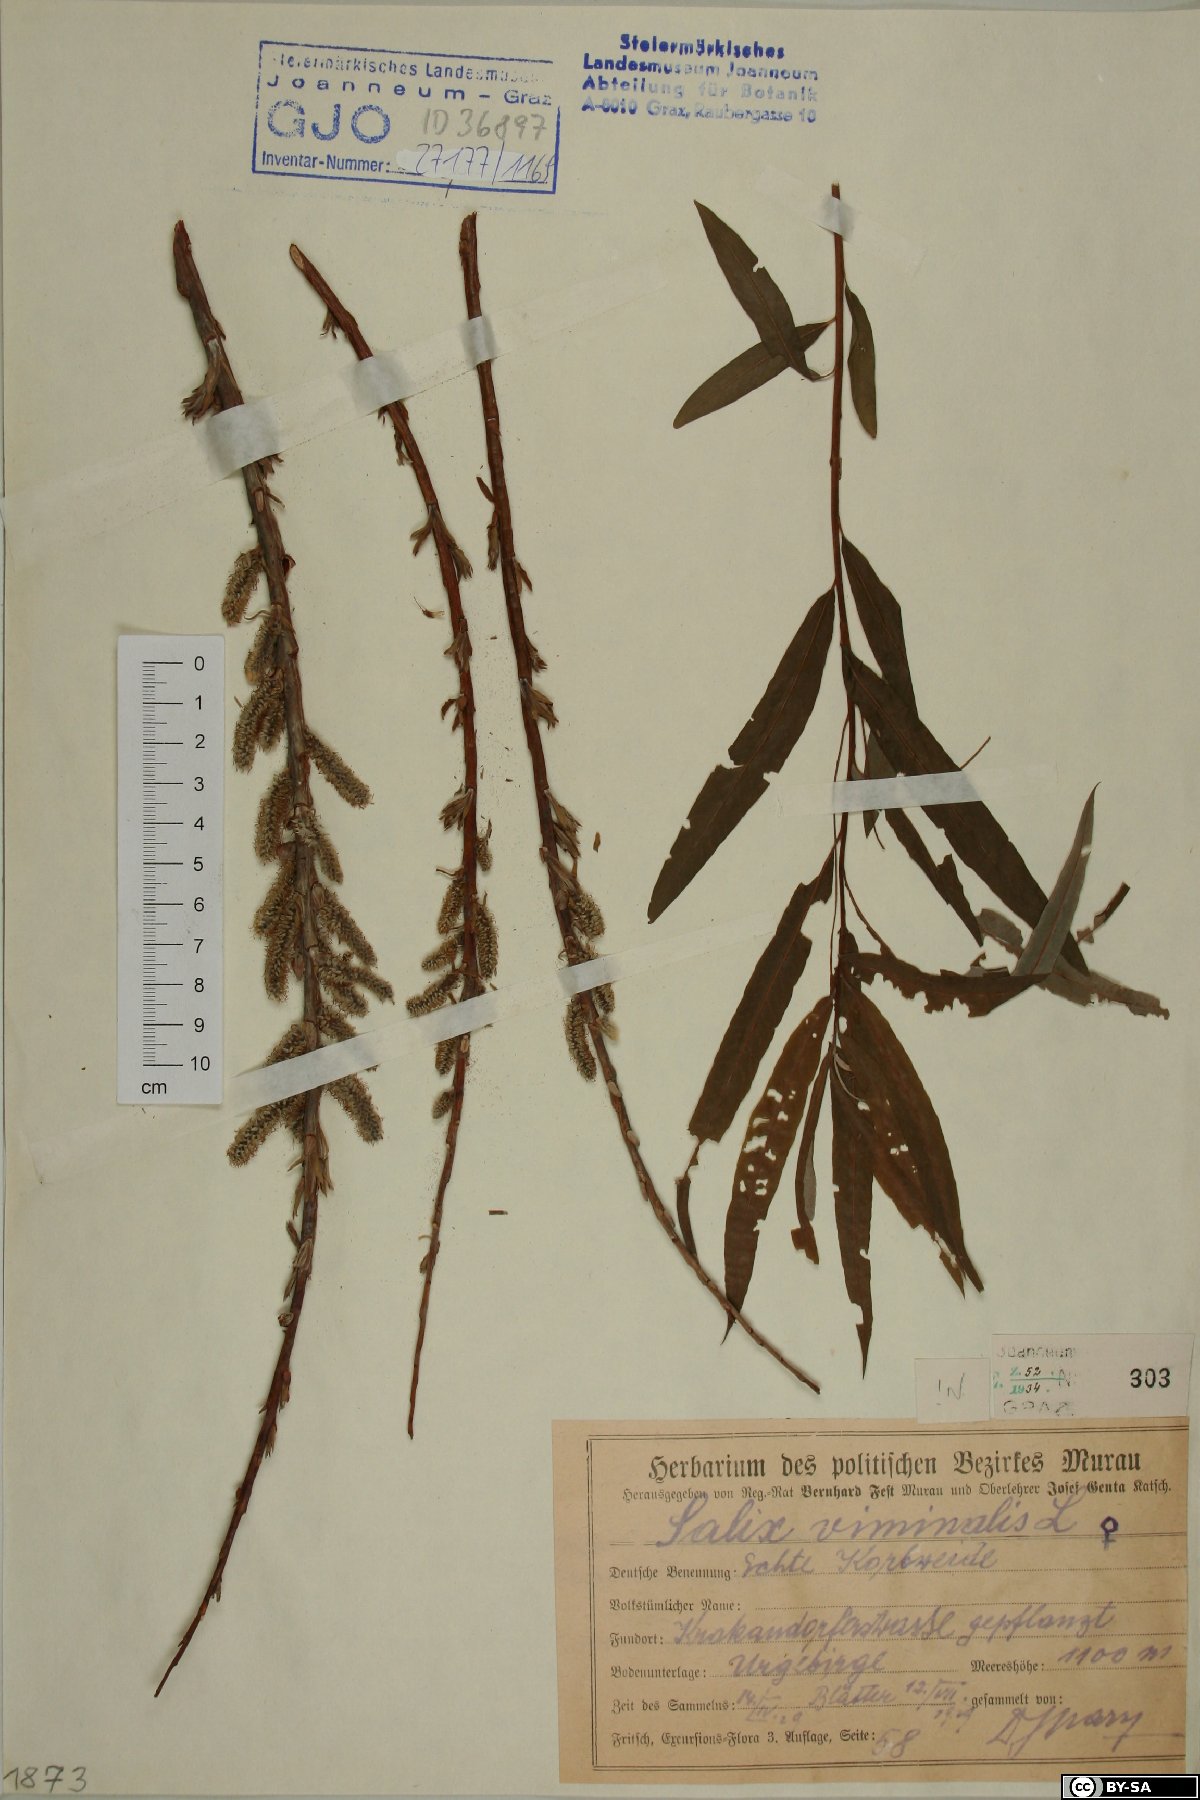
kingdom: Plantae
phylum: Tracheophyta
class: Magnoliopsida
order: Malpighiales
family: Salicaceae
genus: Salix
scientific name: Salix viminalis
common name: Osier
